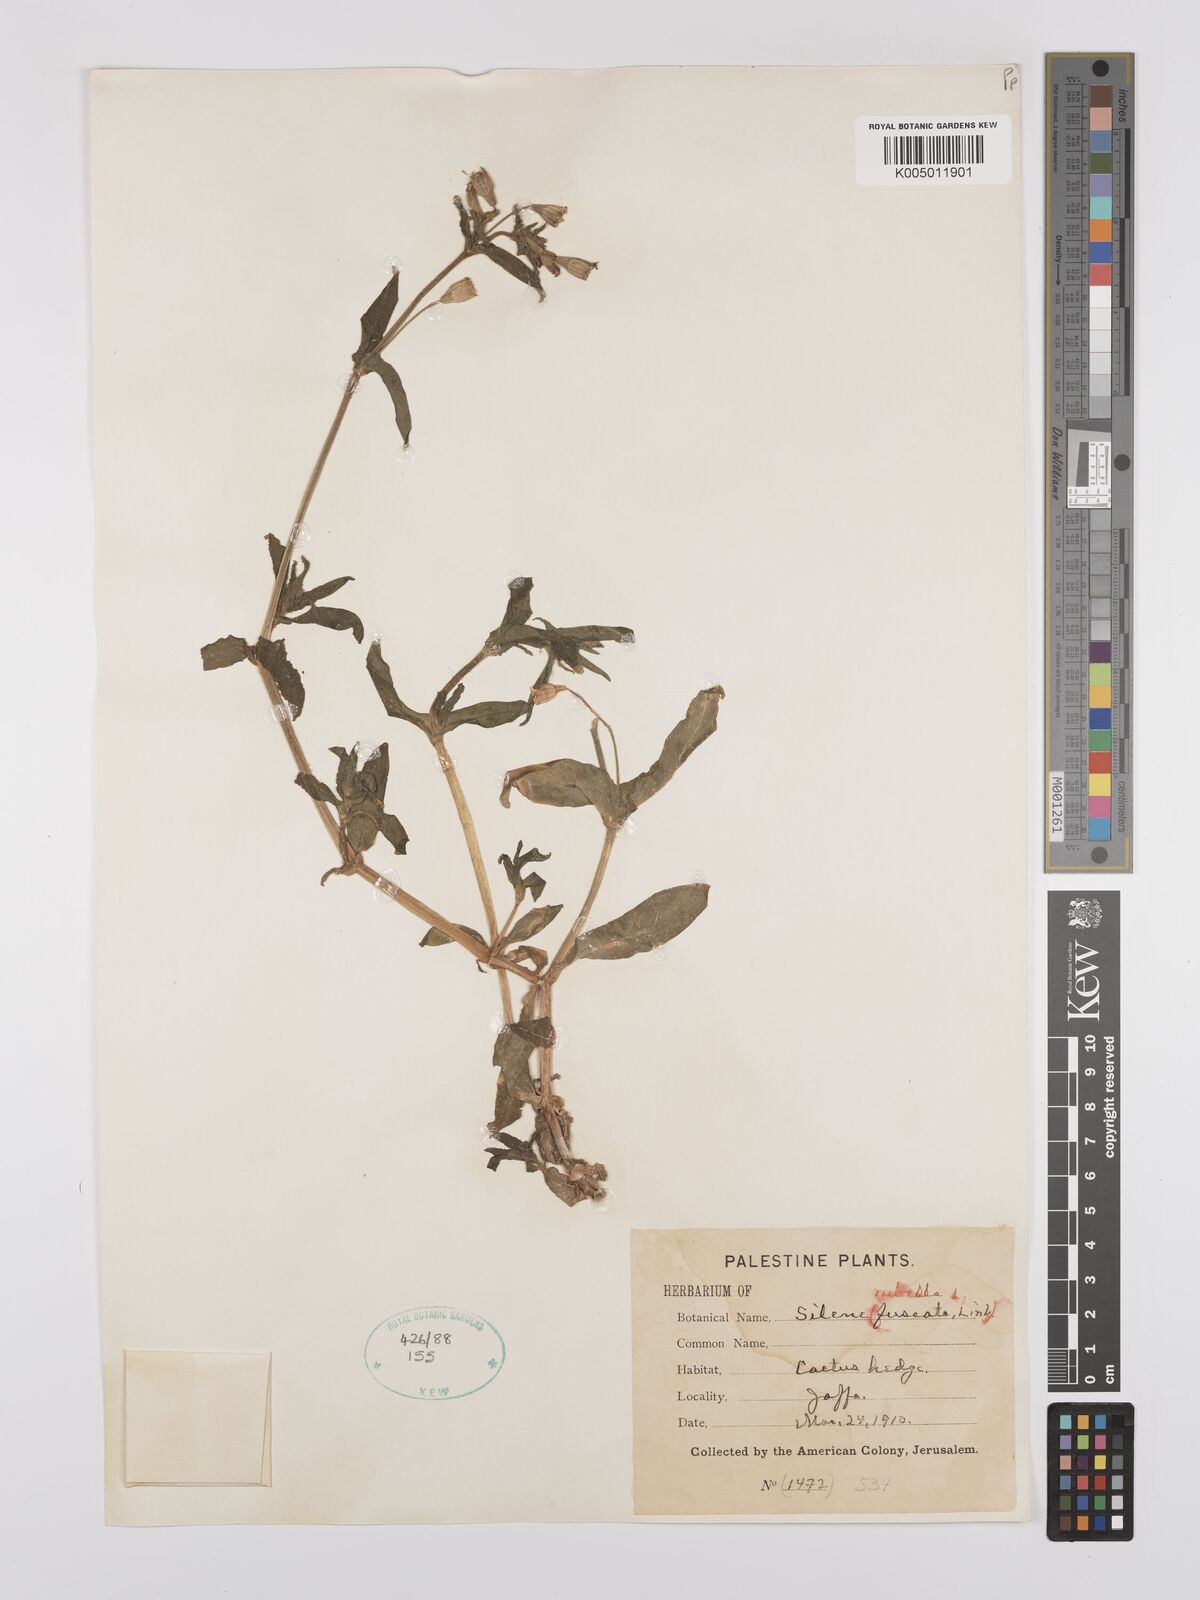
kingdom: Plantae
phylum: Tracheophyta
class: Magnoliopsida
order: Caryophyllales
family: Caryophyllaceae
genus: Silene
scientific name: Silene fuscata
